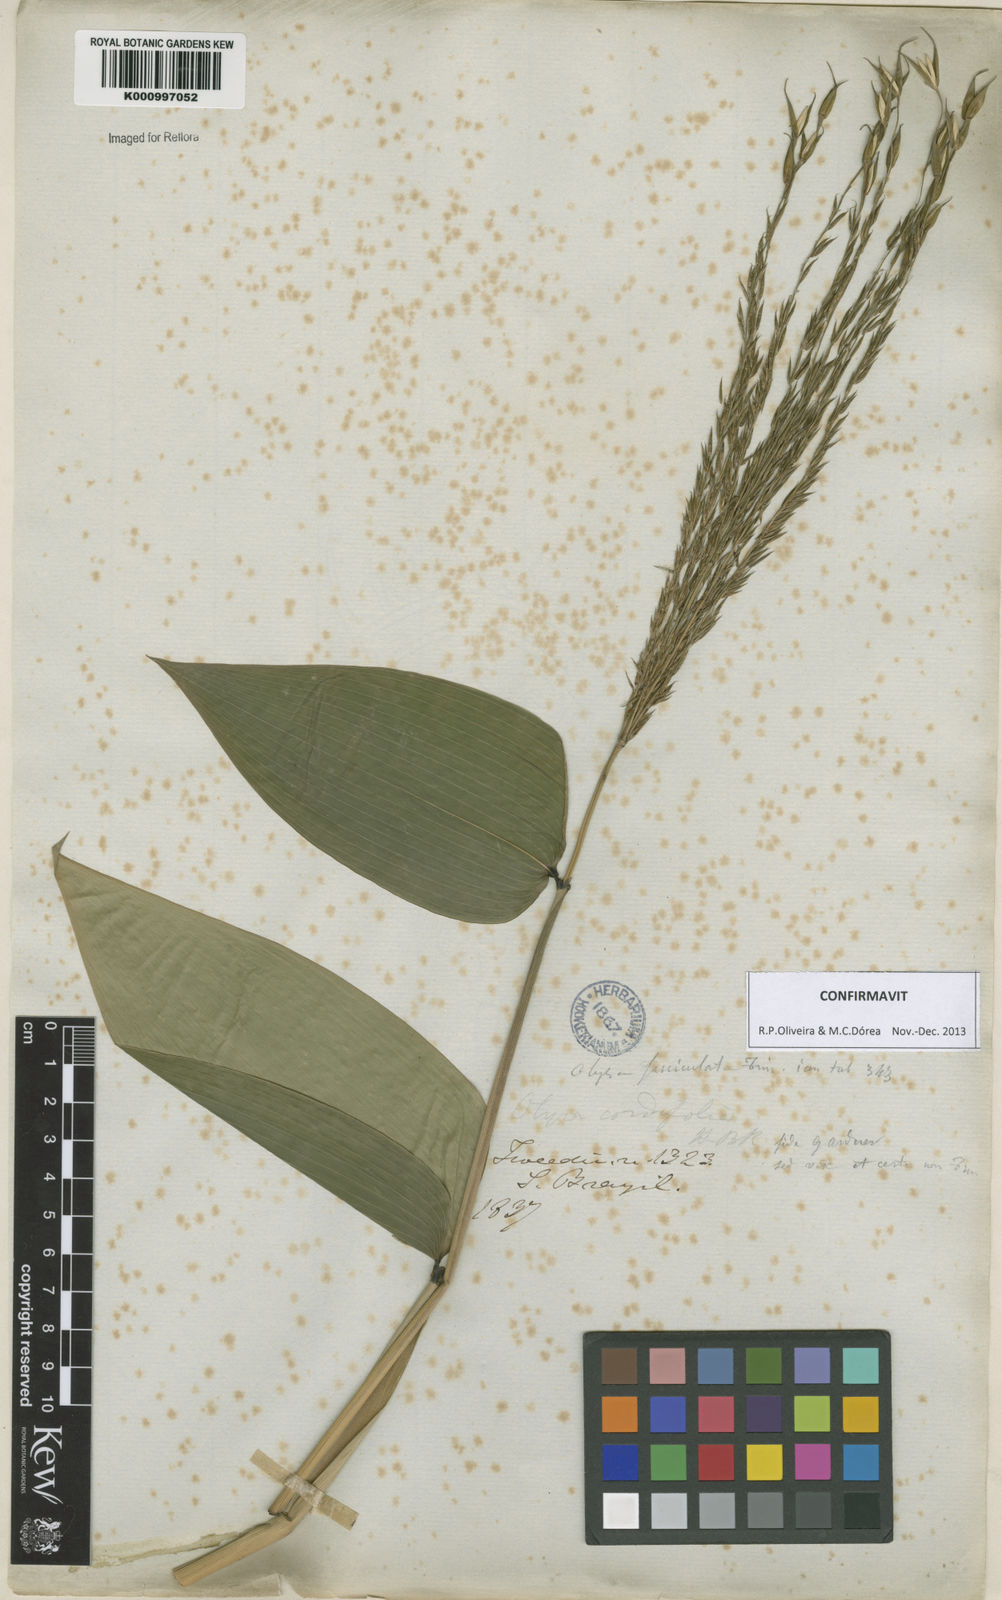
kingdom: Plantae
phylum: Tracheophyta
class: Liliopsida
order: Poales
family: Poaceae
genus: Olyra
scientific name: Olyra fasciculata
